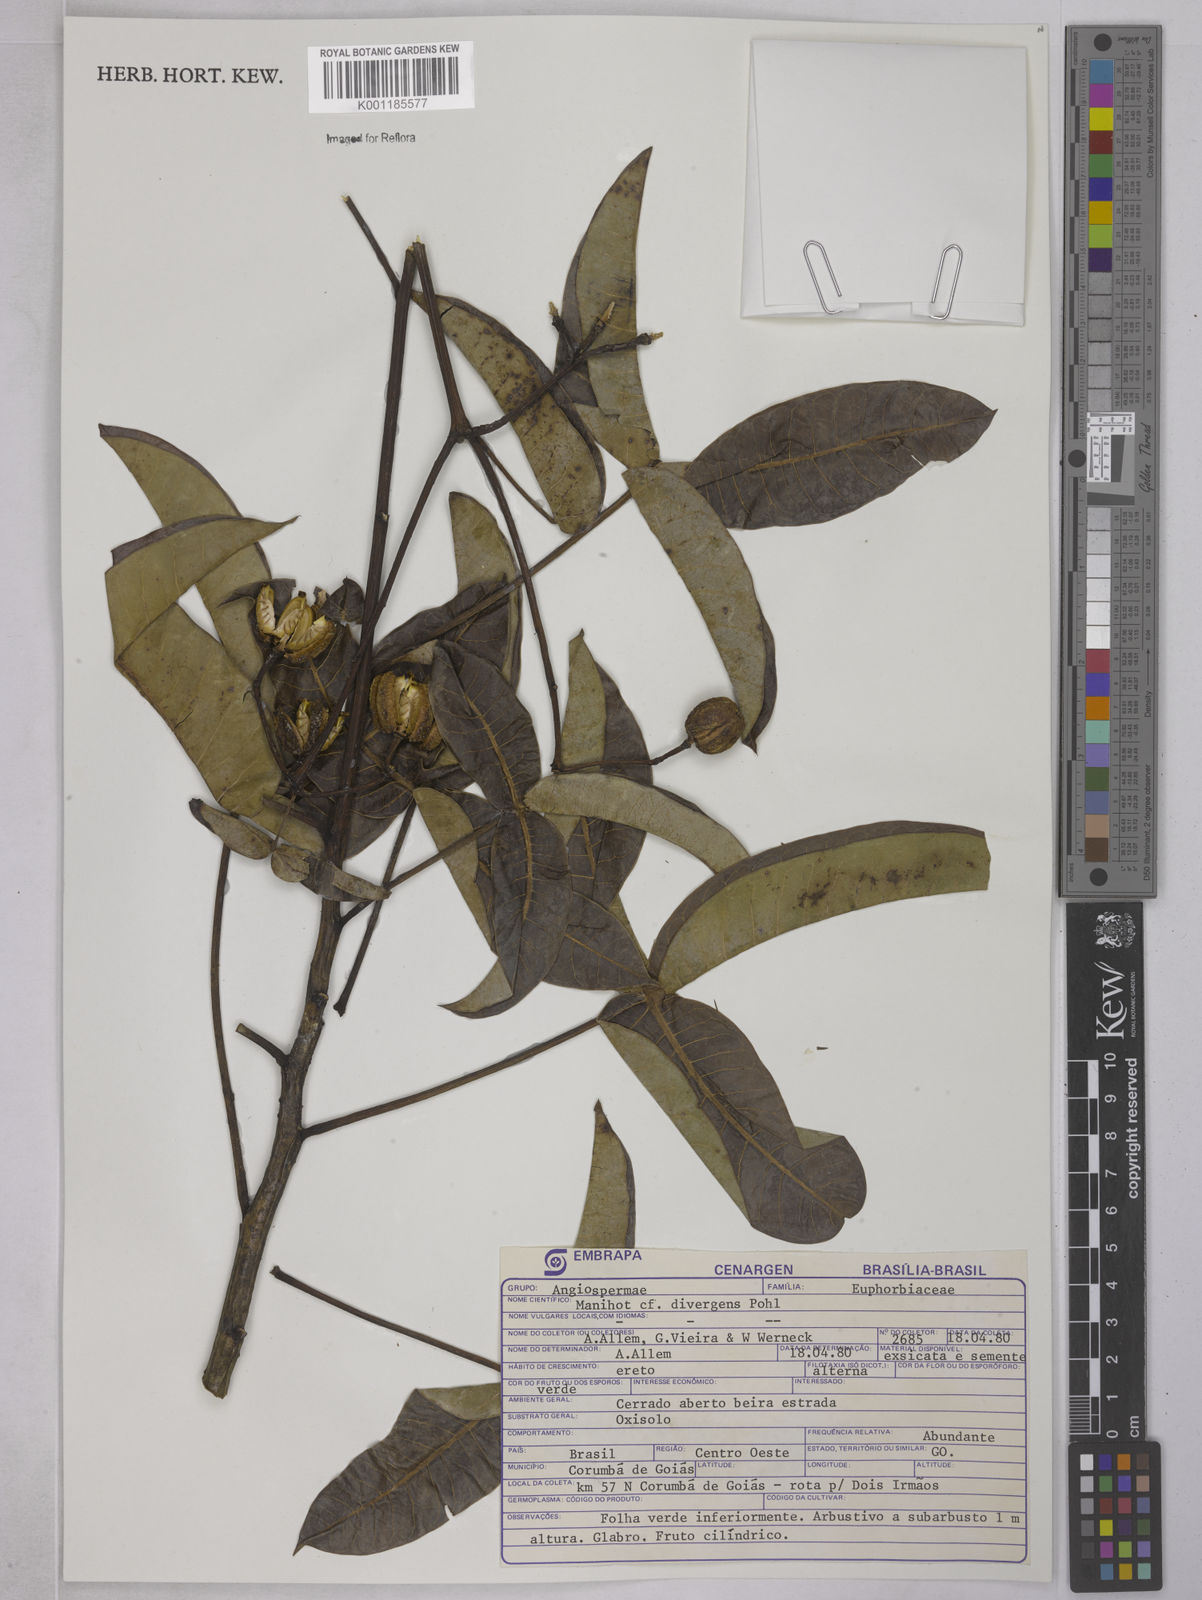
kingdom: Plantae
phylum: Tracheophyta
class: Magnoliopsida
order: Malpighiales
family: Euphorbiaceae
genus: Manihot
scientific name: Manihot divergens
